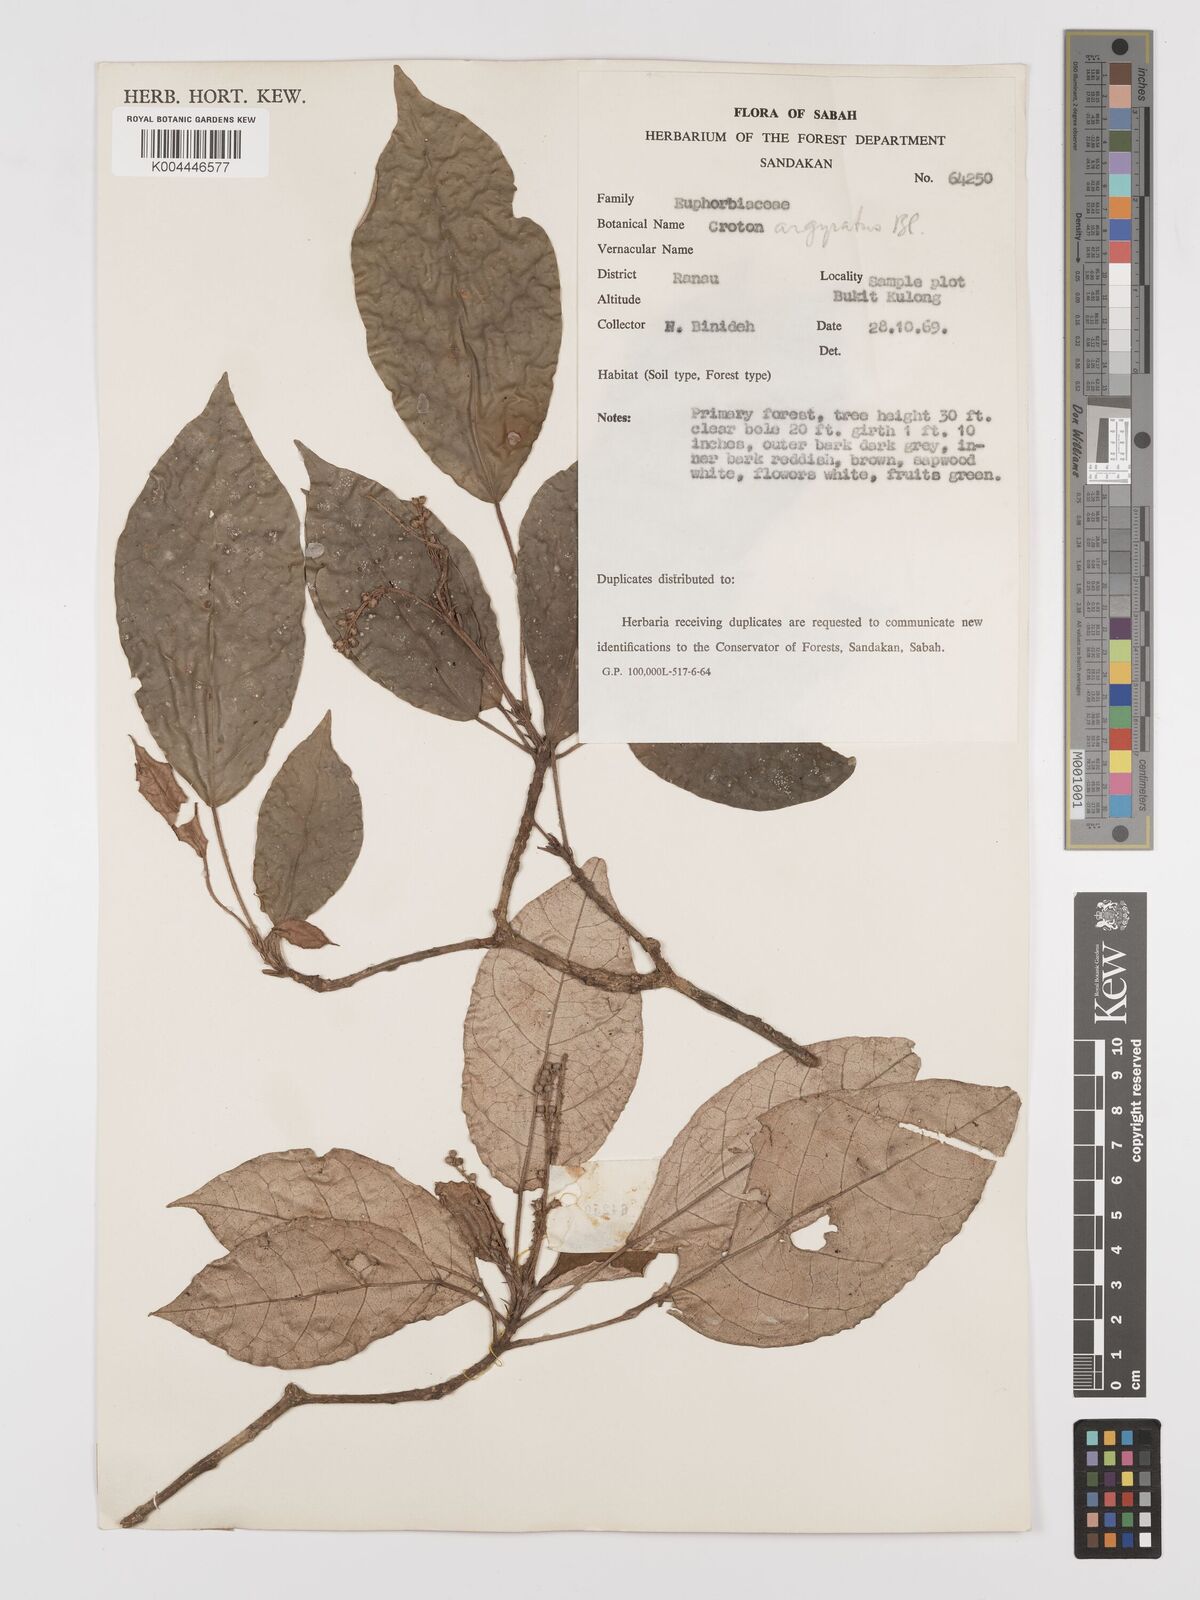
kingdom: Plantae
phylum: Tracheophyta
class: Magnoliopsida
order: Malpighiales
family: Euphorbiaceae
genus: Croton
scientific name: Croton argyratus
